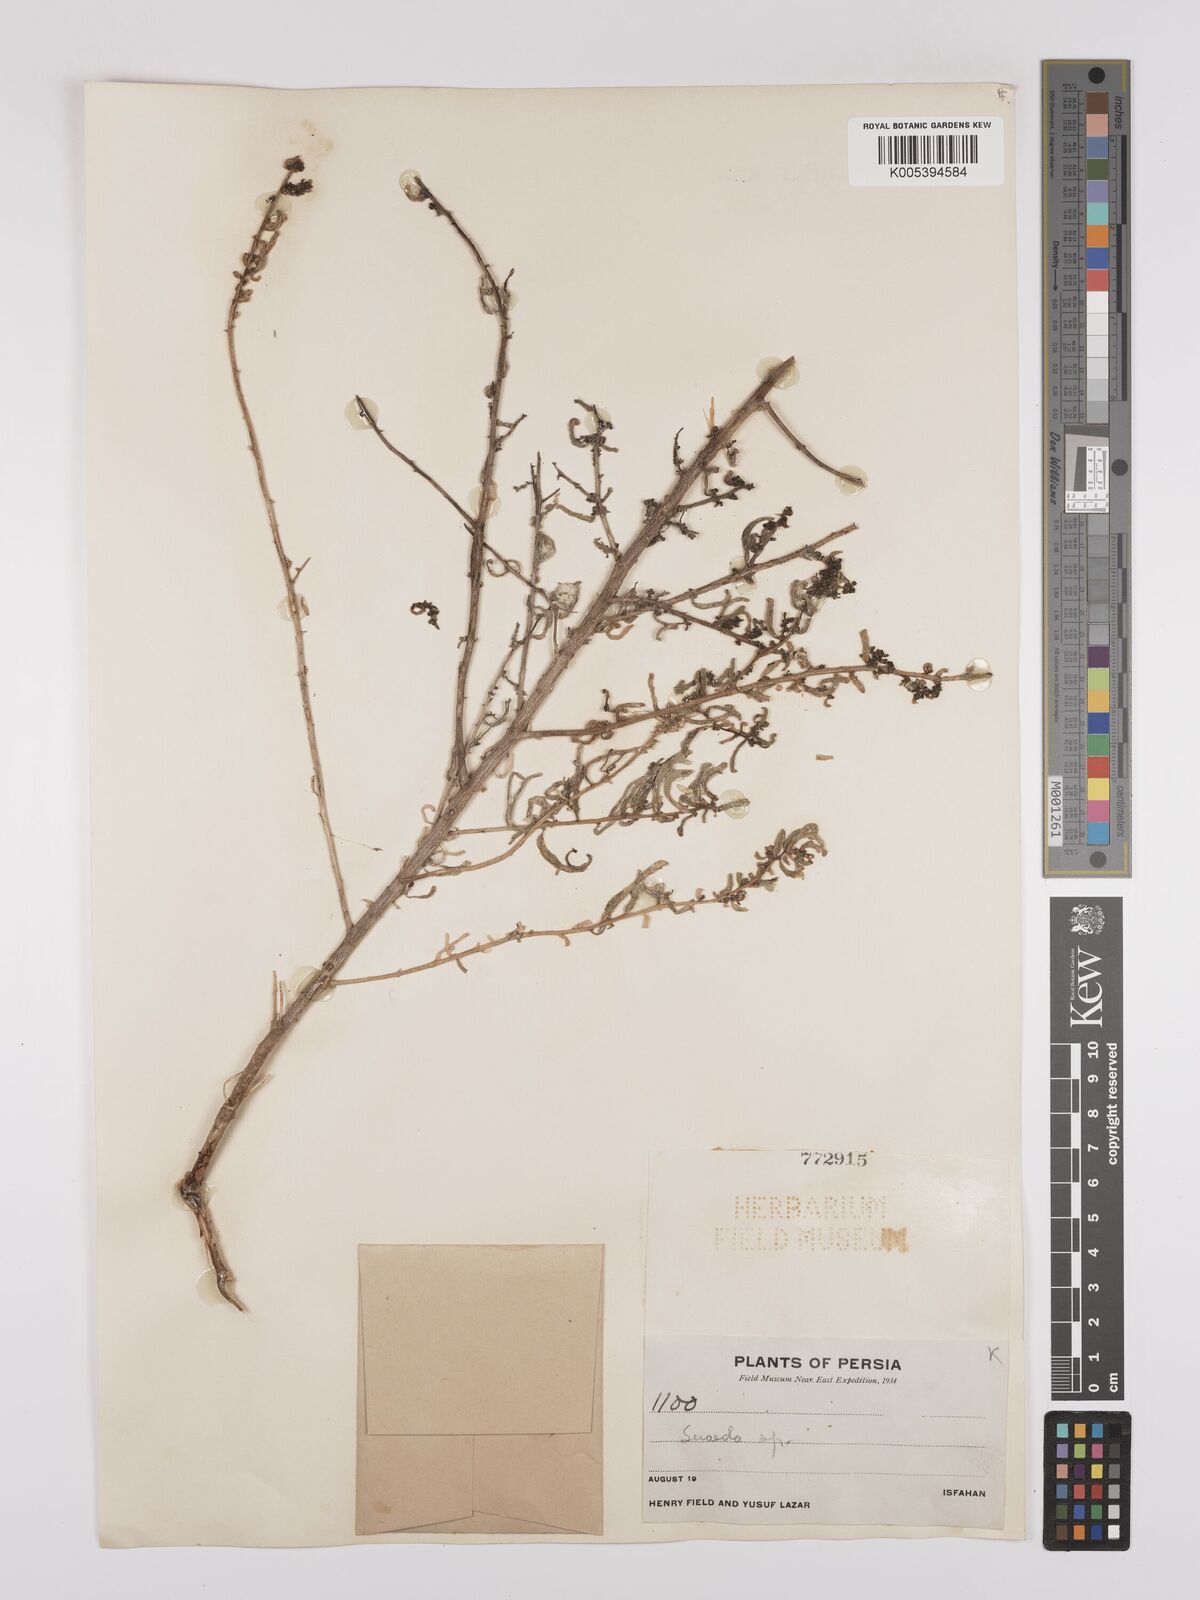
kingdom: Plantae
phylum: Tracheophyta
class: Magnoliopsida
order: Caryophyllales
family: Amaranthaceae
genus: Suaeda
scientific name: Suaeda
